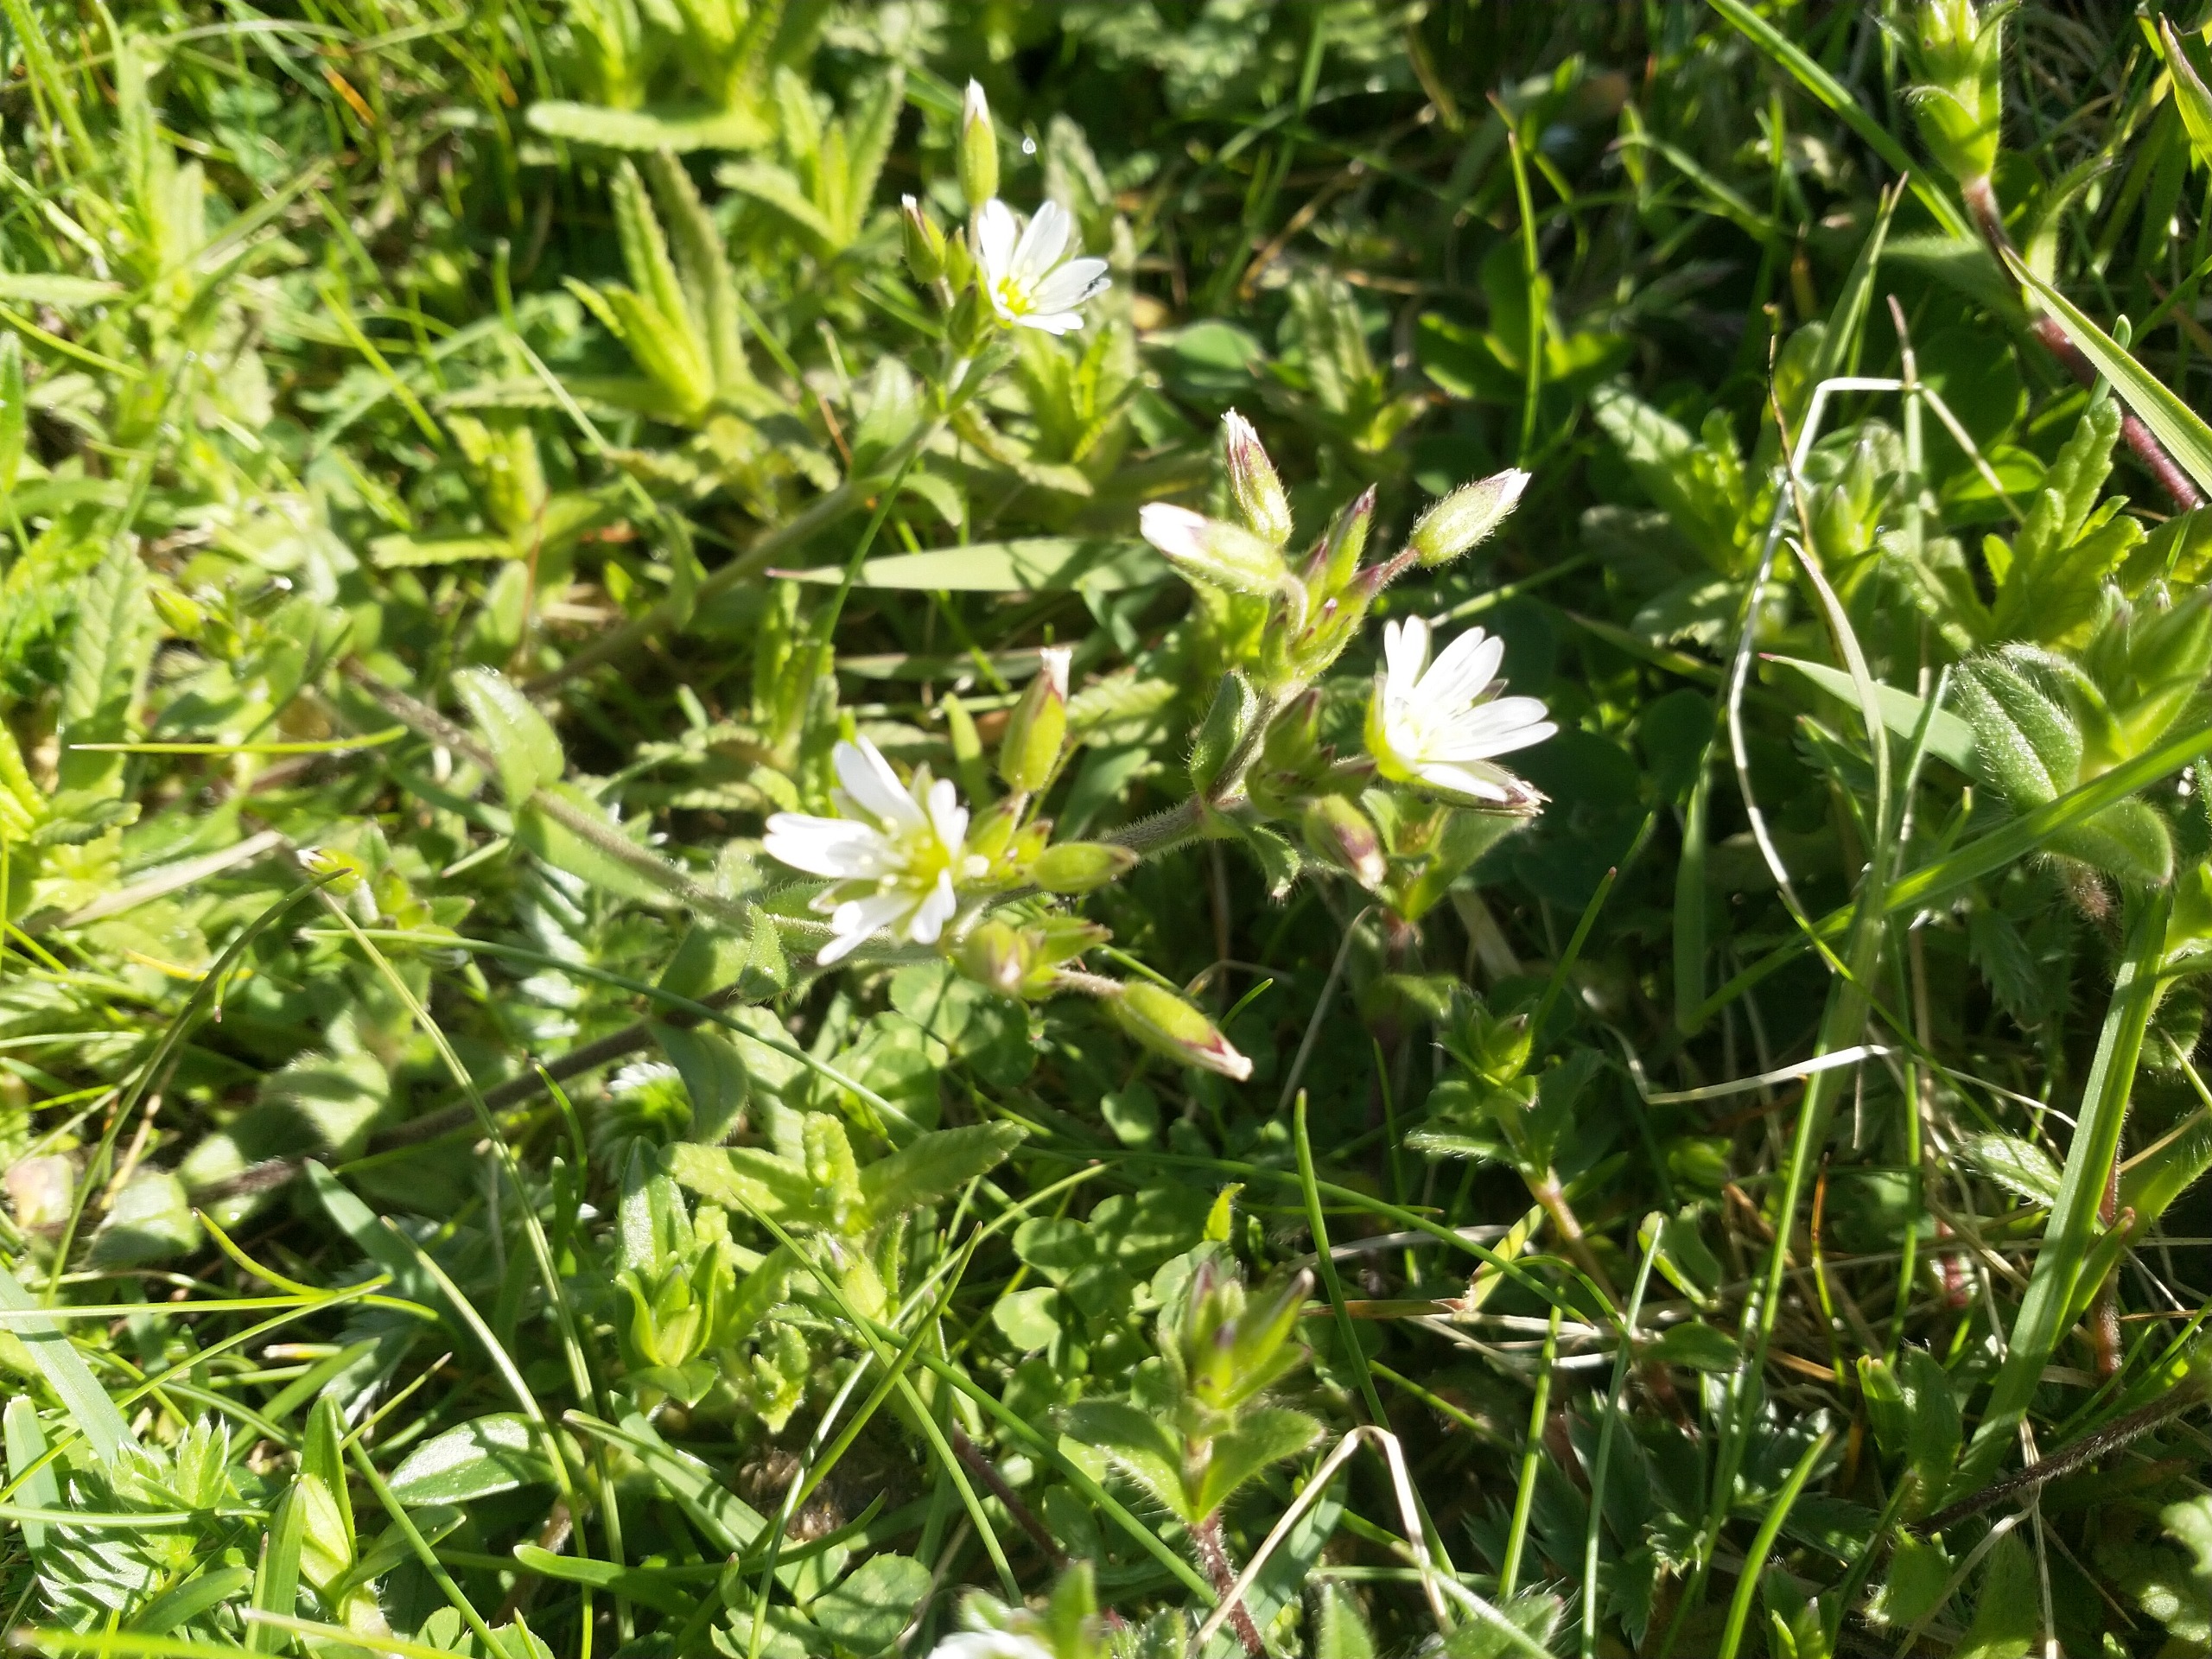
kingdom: Plantae
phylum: Tracheophyta
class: Magnoliopsida
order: Caryophyllales
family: Caryophyllaceae
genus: Cerastium
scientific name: Cerastium fontanum
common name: Almindelig hønsetarm
